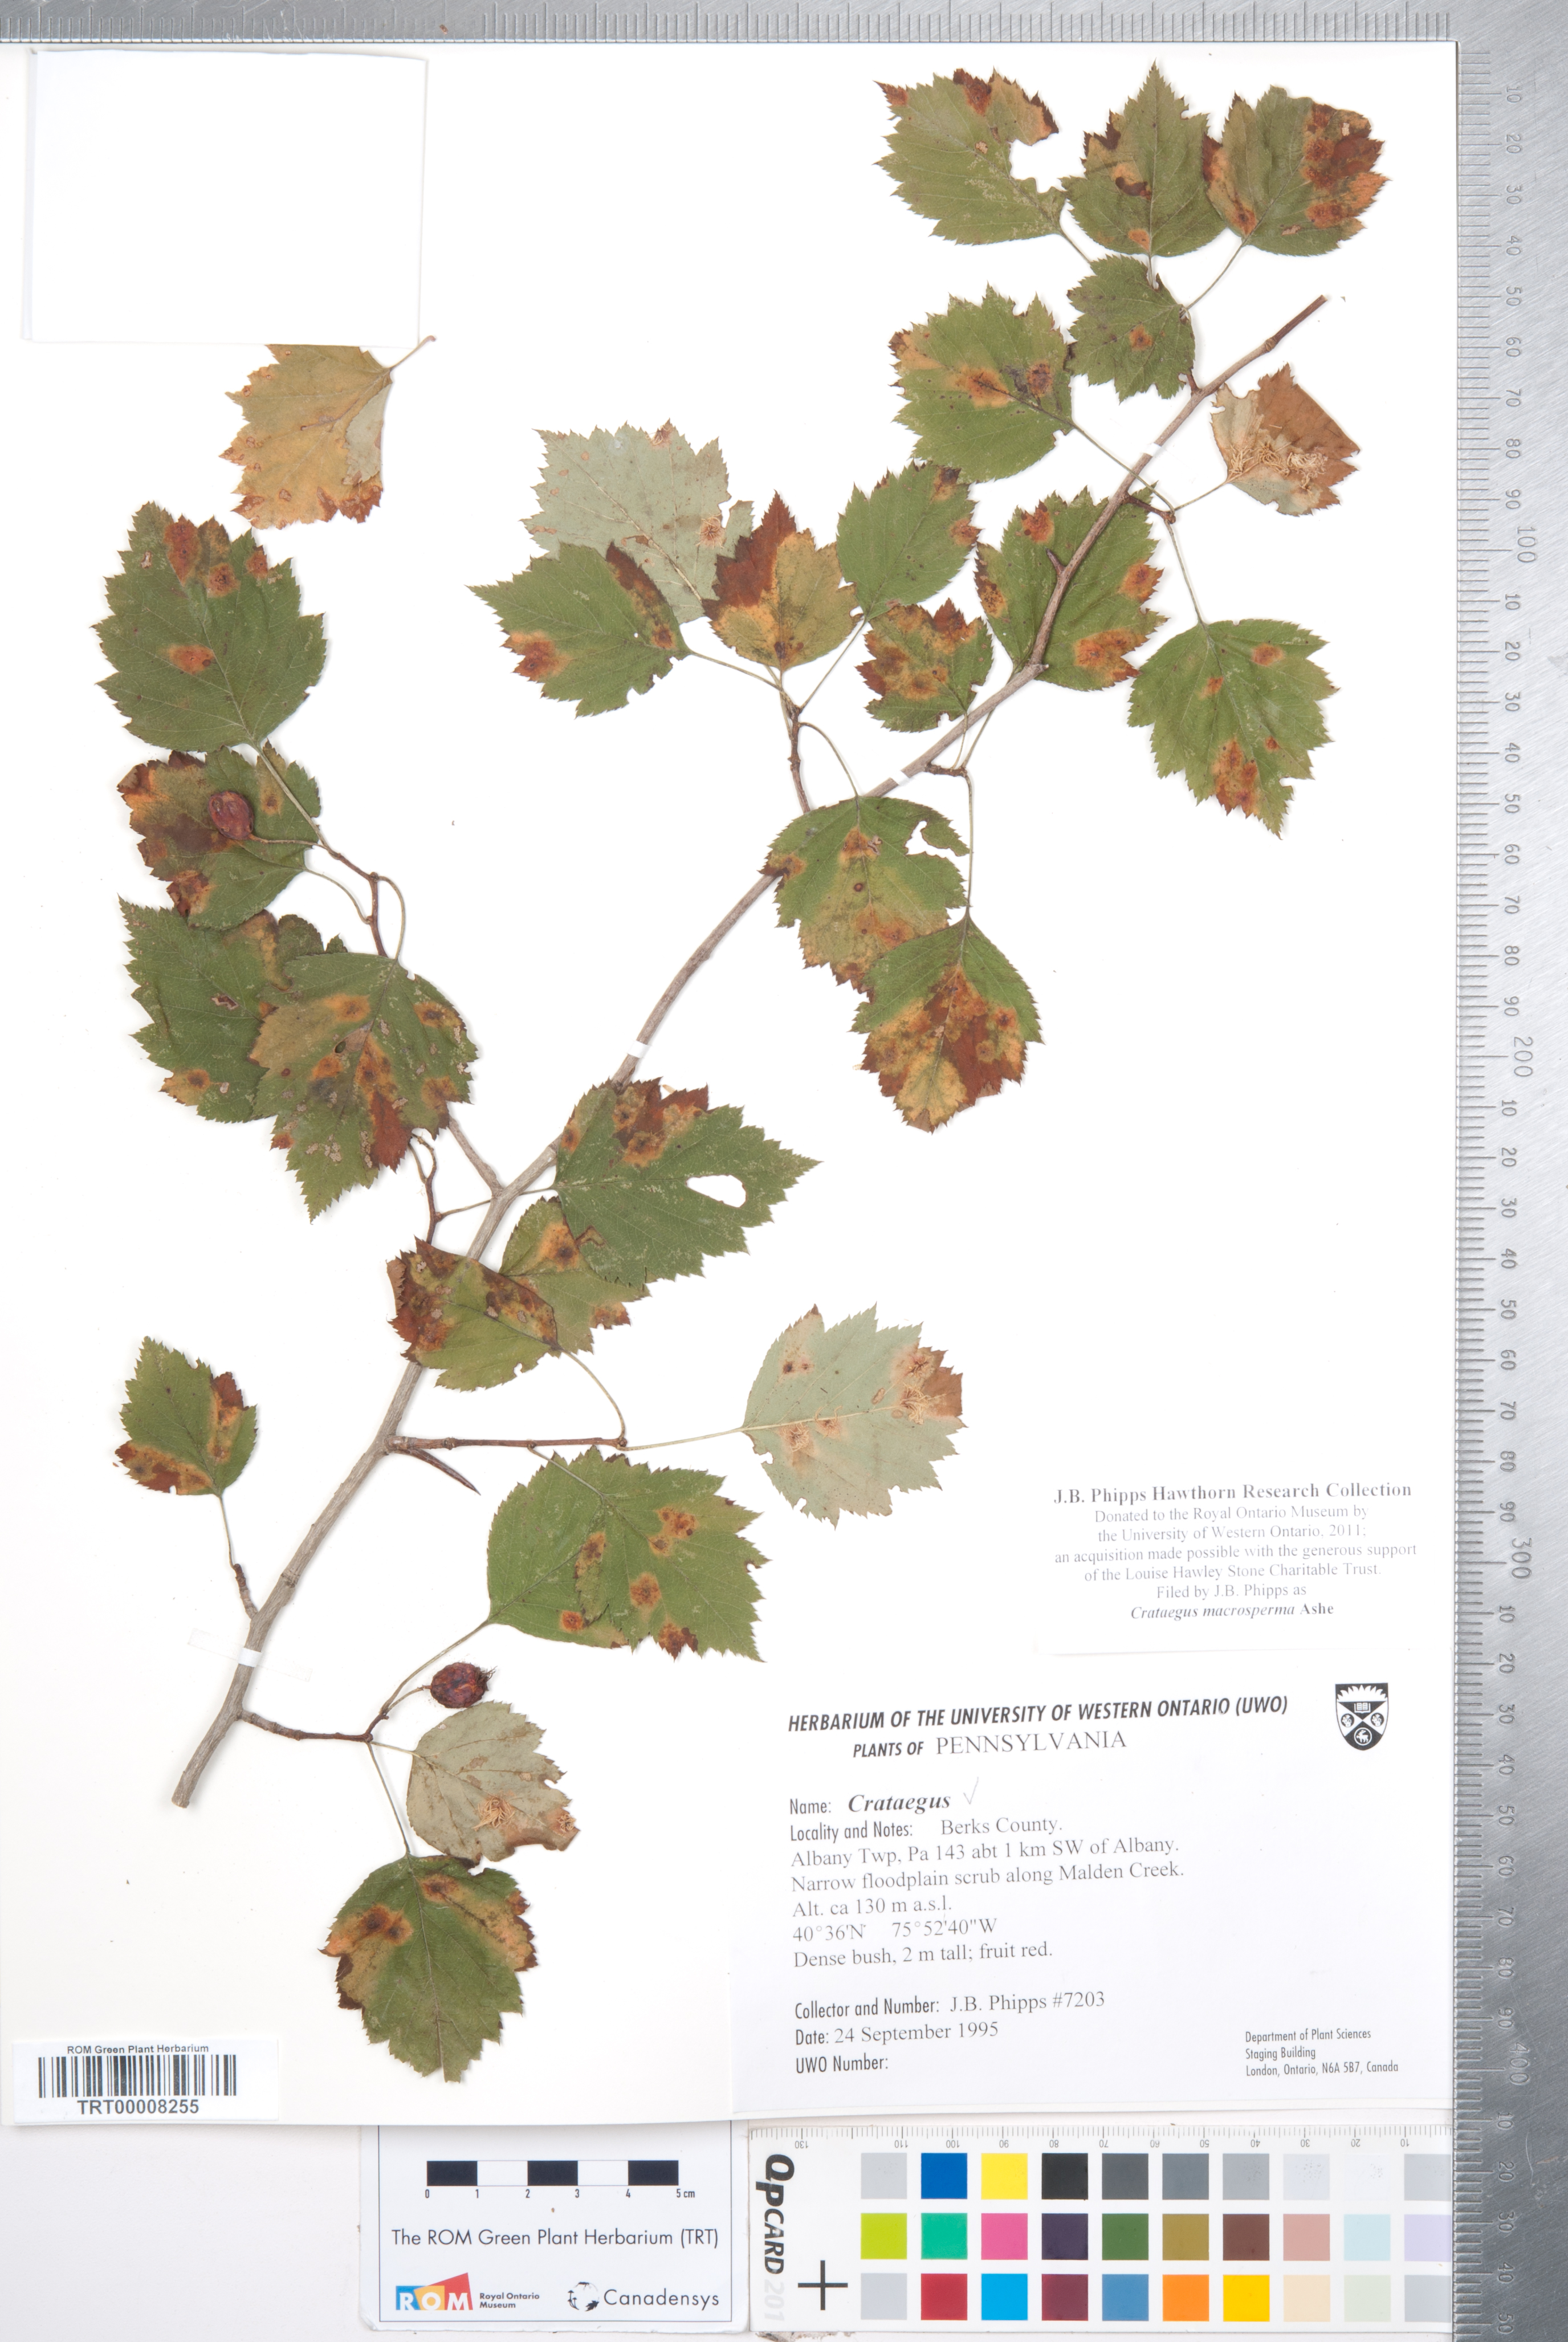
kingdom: Plantae
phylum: Tracheophyta
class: Magnoliopsida
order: Rosales
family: Rosaceae
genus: Crataegus
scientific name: Crataegus macrosperma
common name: Variable hawthorn
